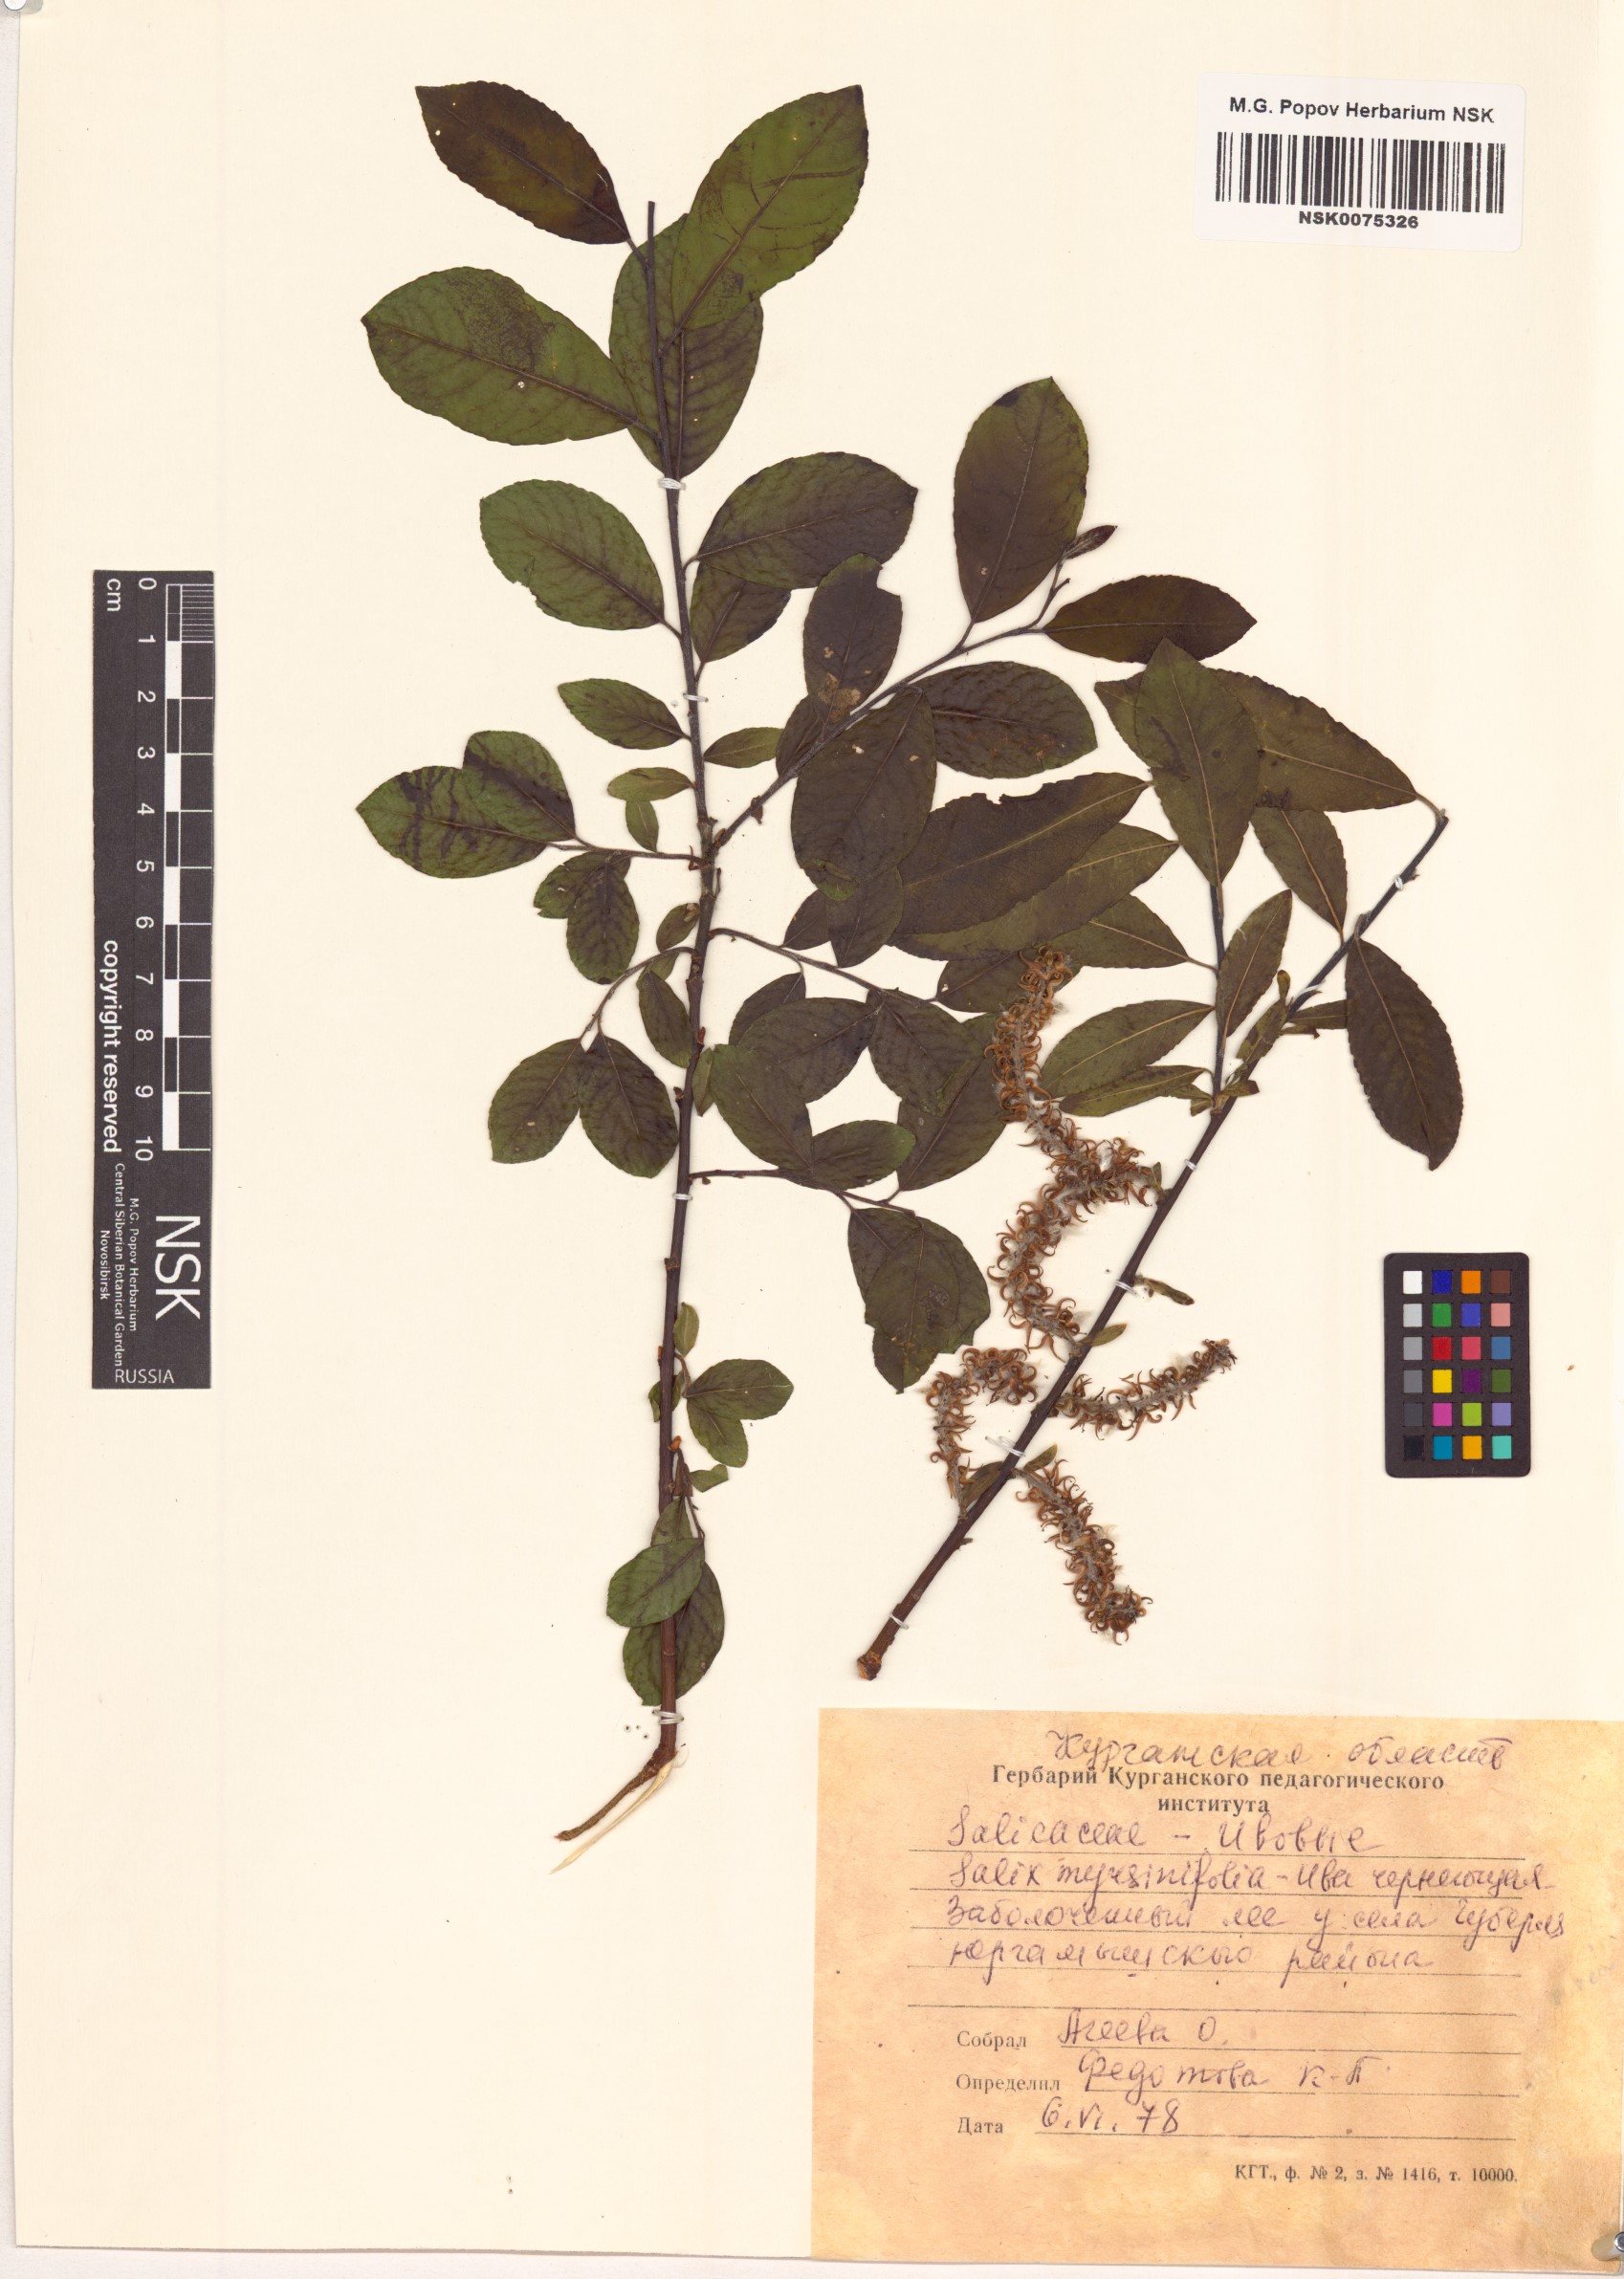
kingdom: Plantae
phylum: Tracheophyta
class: Magnoliopsida
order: Malpighiales
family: Salicaceae
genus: Salix
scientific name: Salix myrsinifolia
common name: Dark-leaved willow
